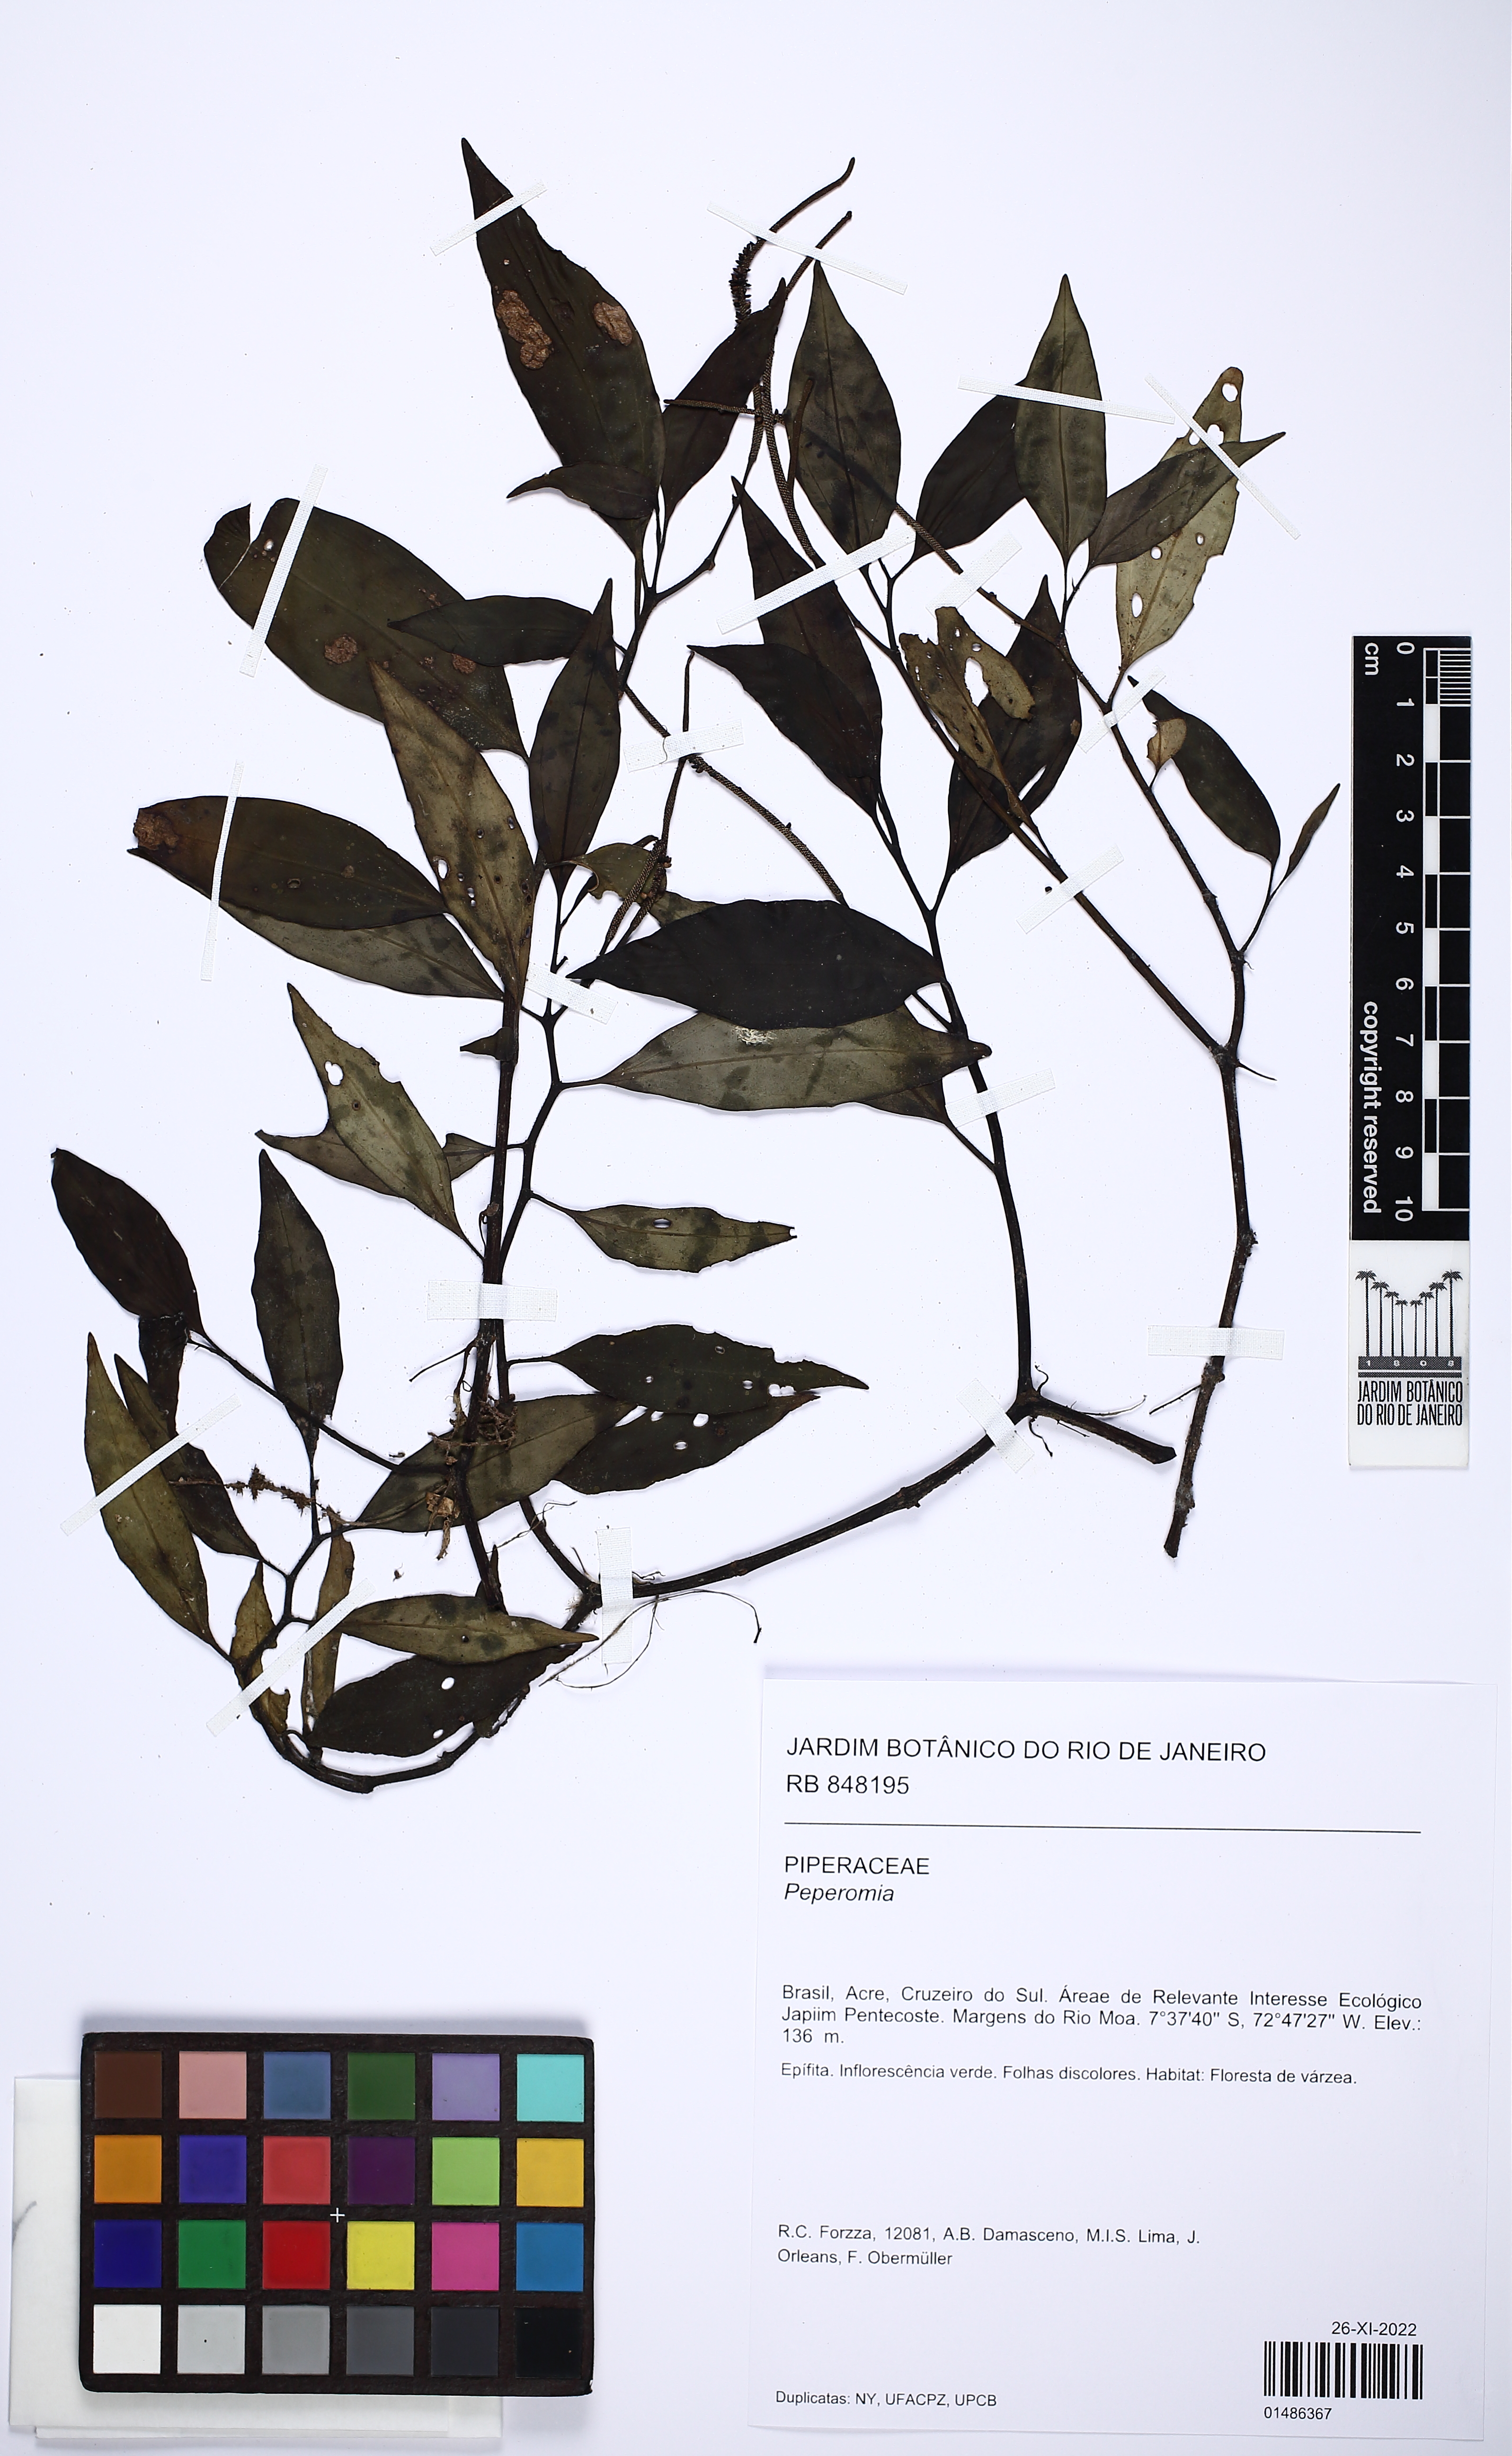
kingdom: Plantae
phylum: Tracheophyta
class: Magnoliopsida
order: Piperales
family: Piperaceae
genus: Peperomia
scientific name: Peperomia elongata
